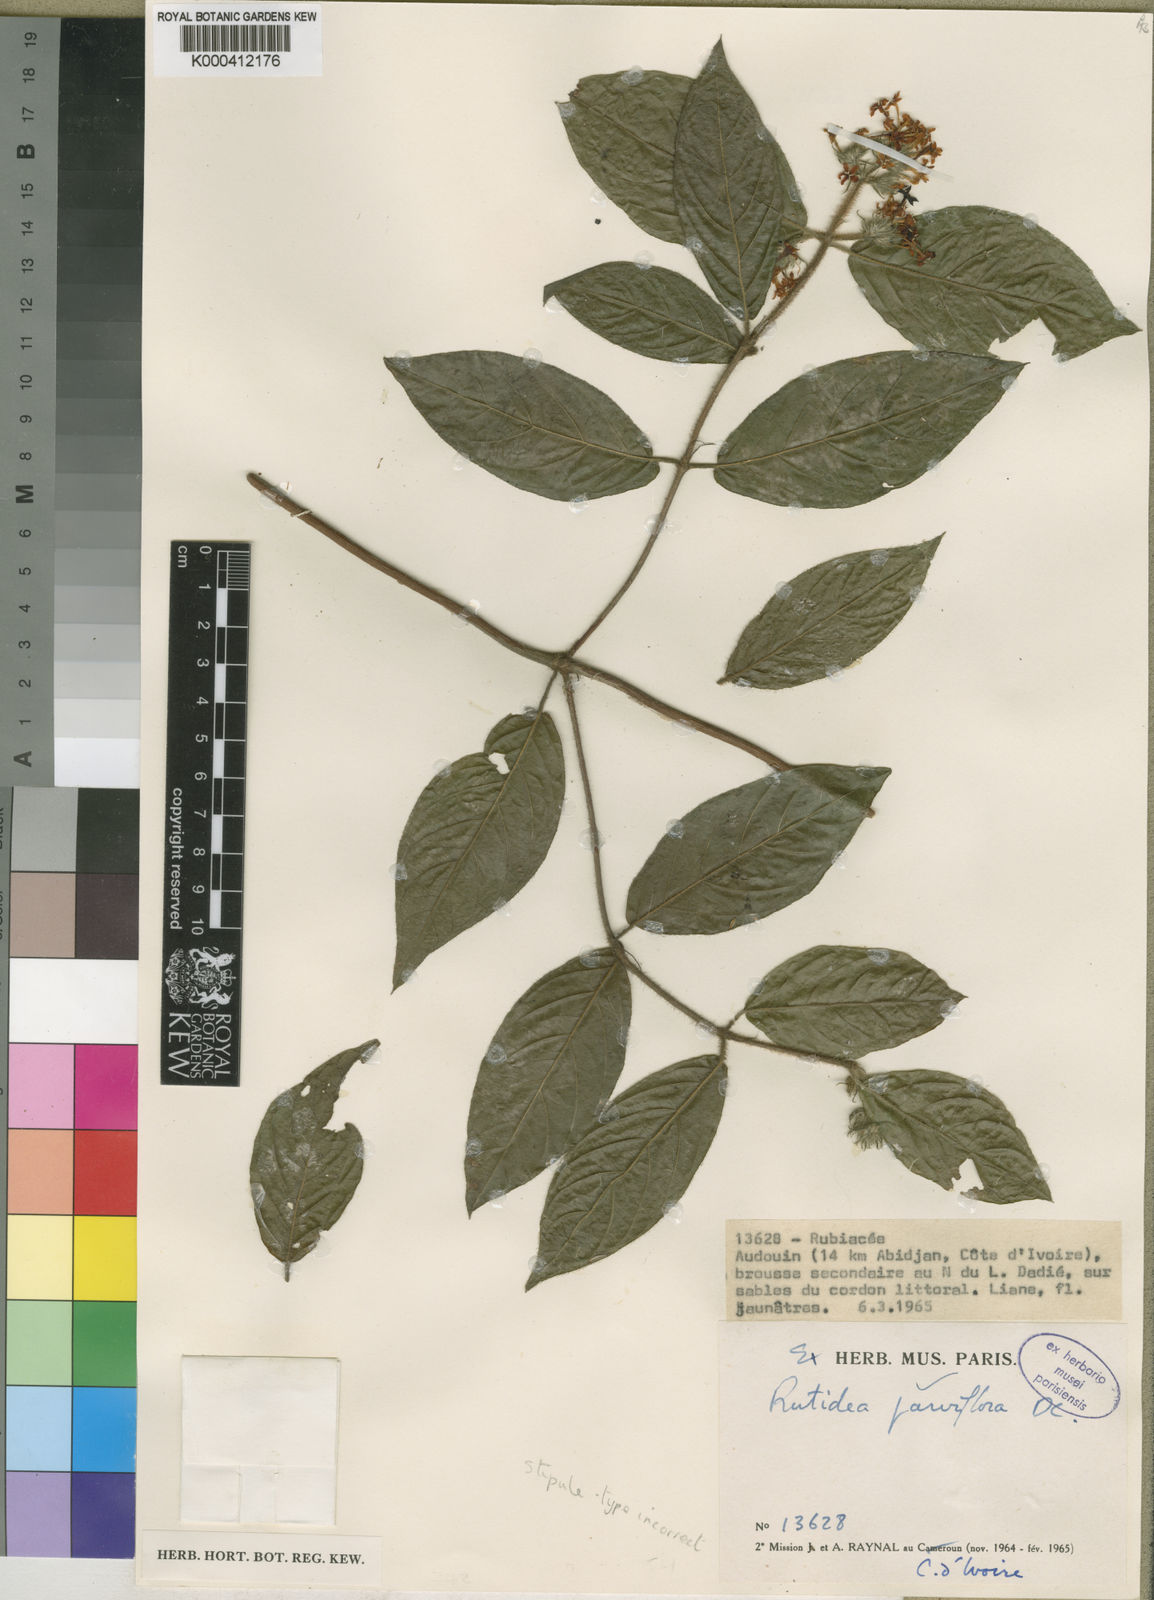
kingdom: Plantae
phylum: Tracheophyta
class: Magnoliopsida
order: Gentianales
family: Rubiaceae
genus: Rutidea
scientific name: Rutidea dupuisii
